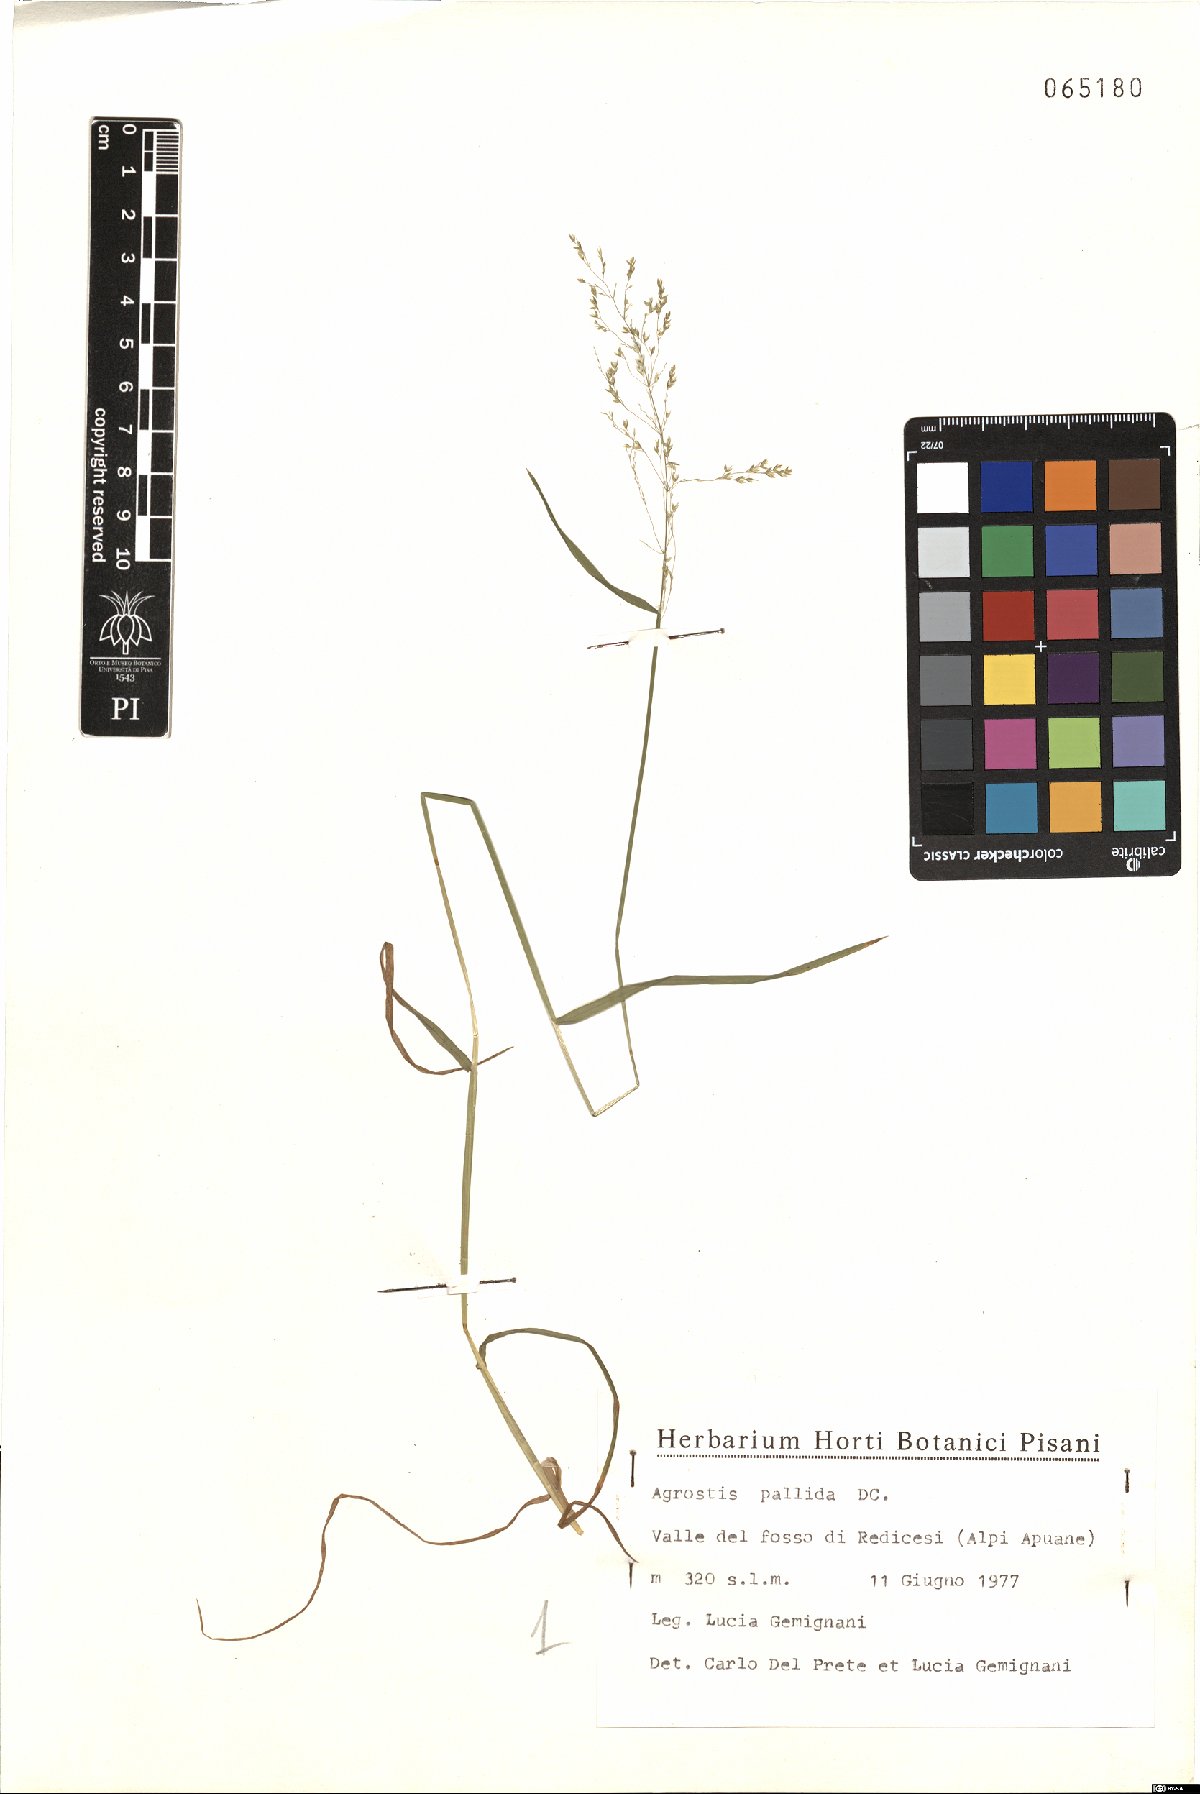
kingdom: Plantae
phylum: Tracheophyta
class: Liliopsida
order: Poales
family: Poaceae
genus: Agrostis
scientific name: Agrostis pourretii
